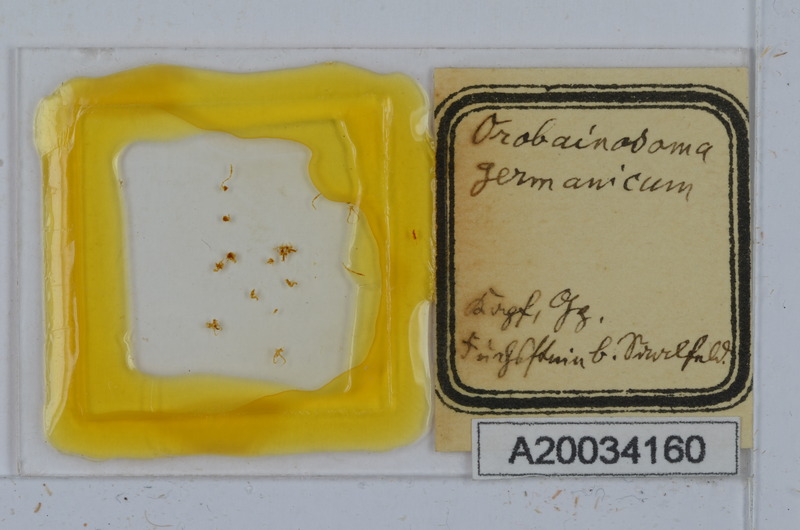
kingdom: Animalia
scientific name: Animalia
